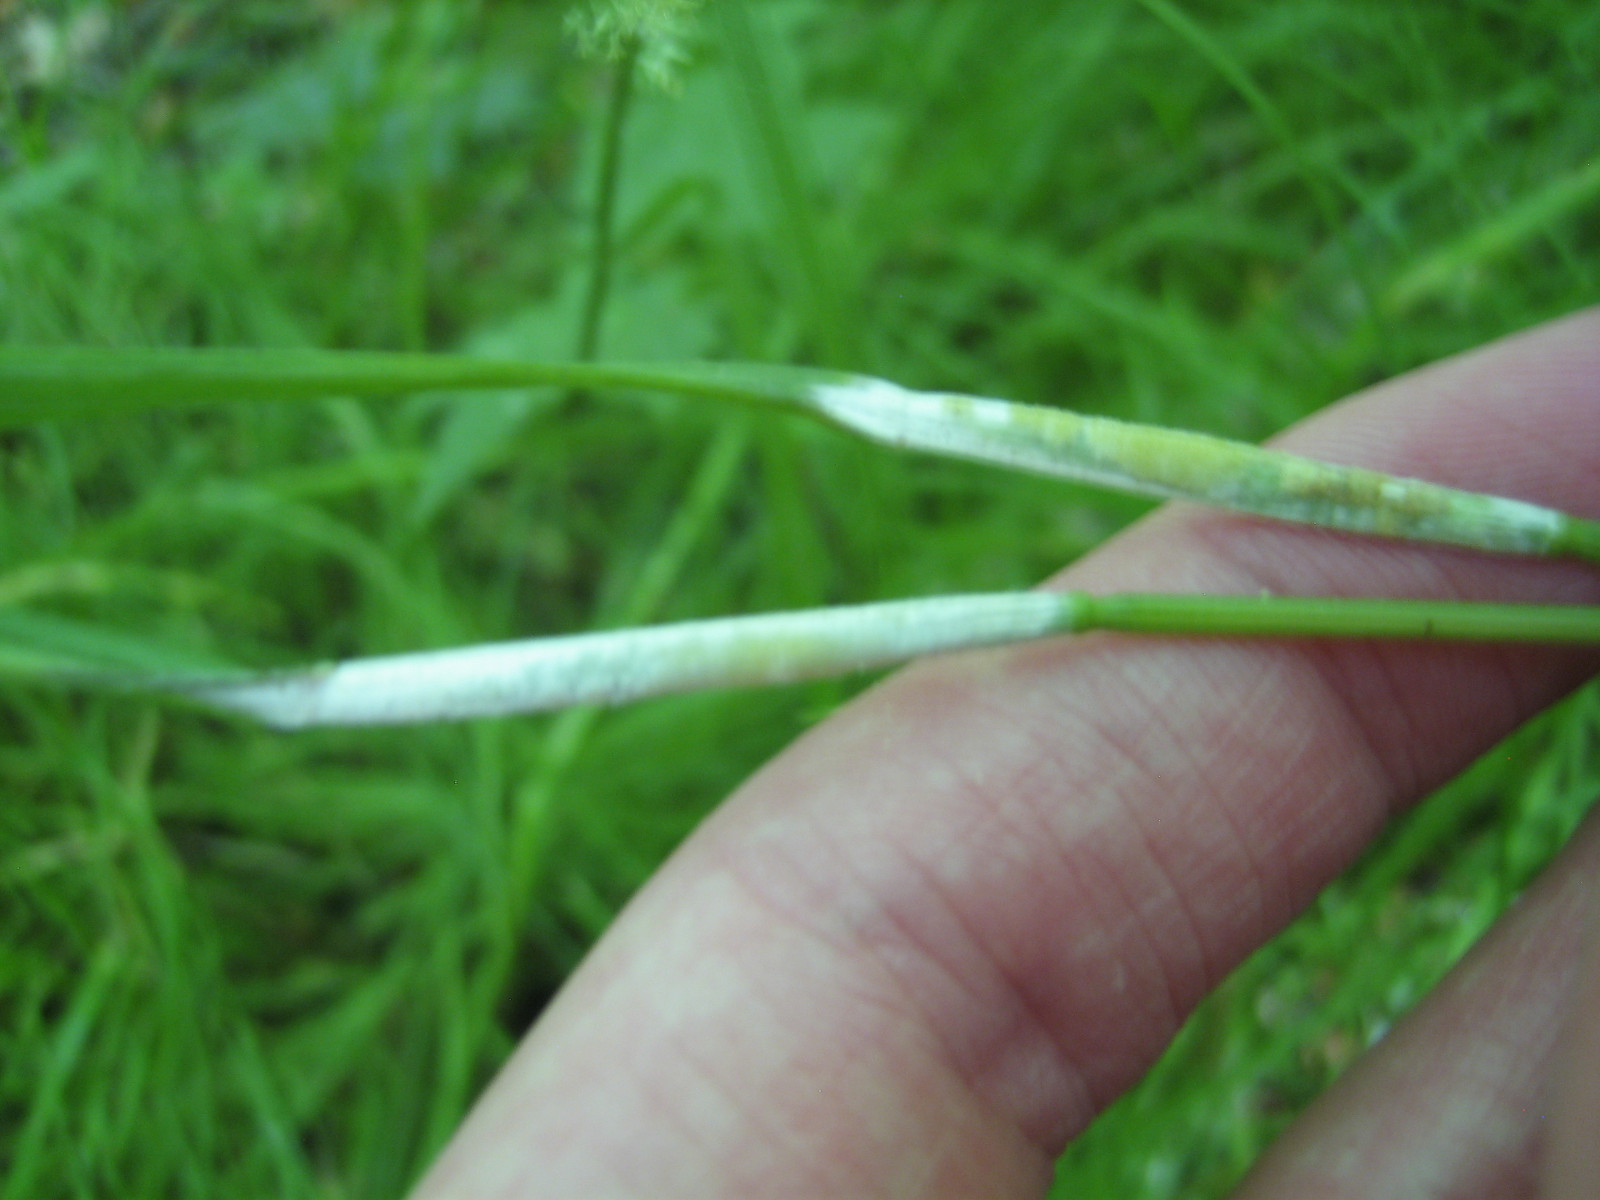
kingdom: Fungi
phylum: Ascomycota
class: Sordariomycetes
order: Hypocreales
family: Clavicipitaceae
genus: Epichloe
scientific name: Epichloe typhina
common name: almindelig kernerør
